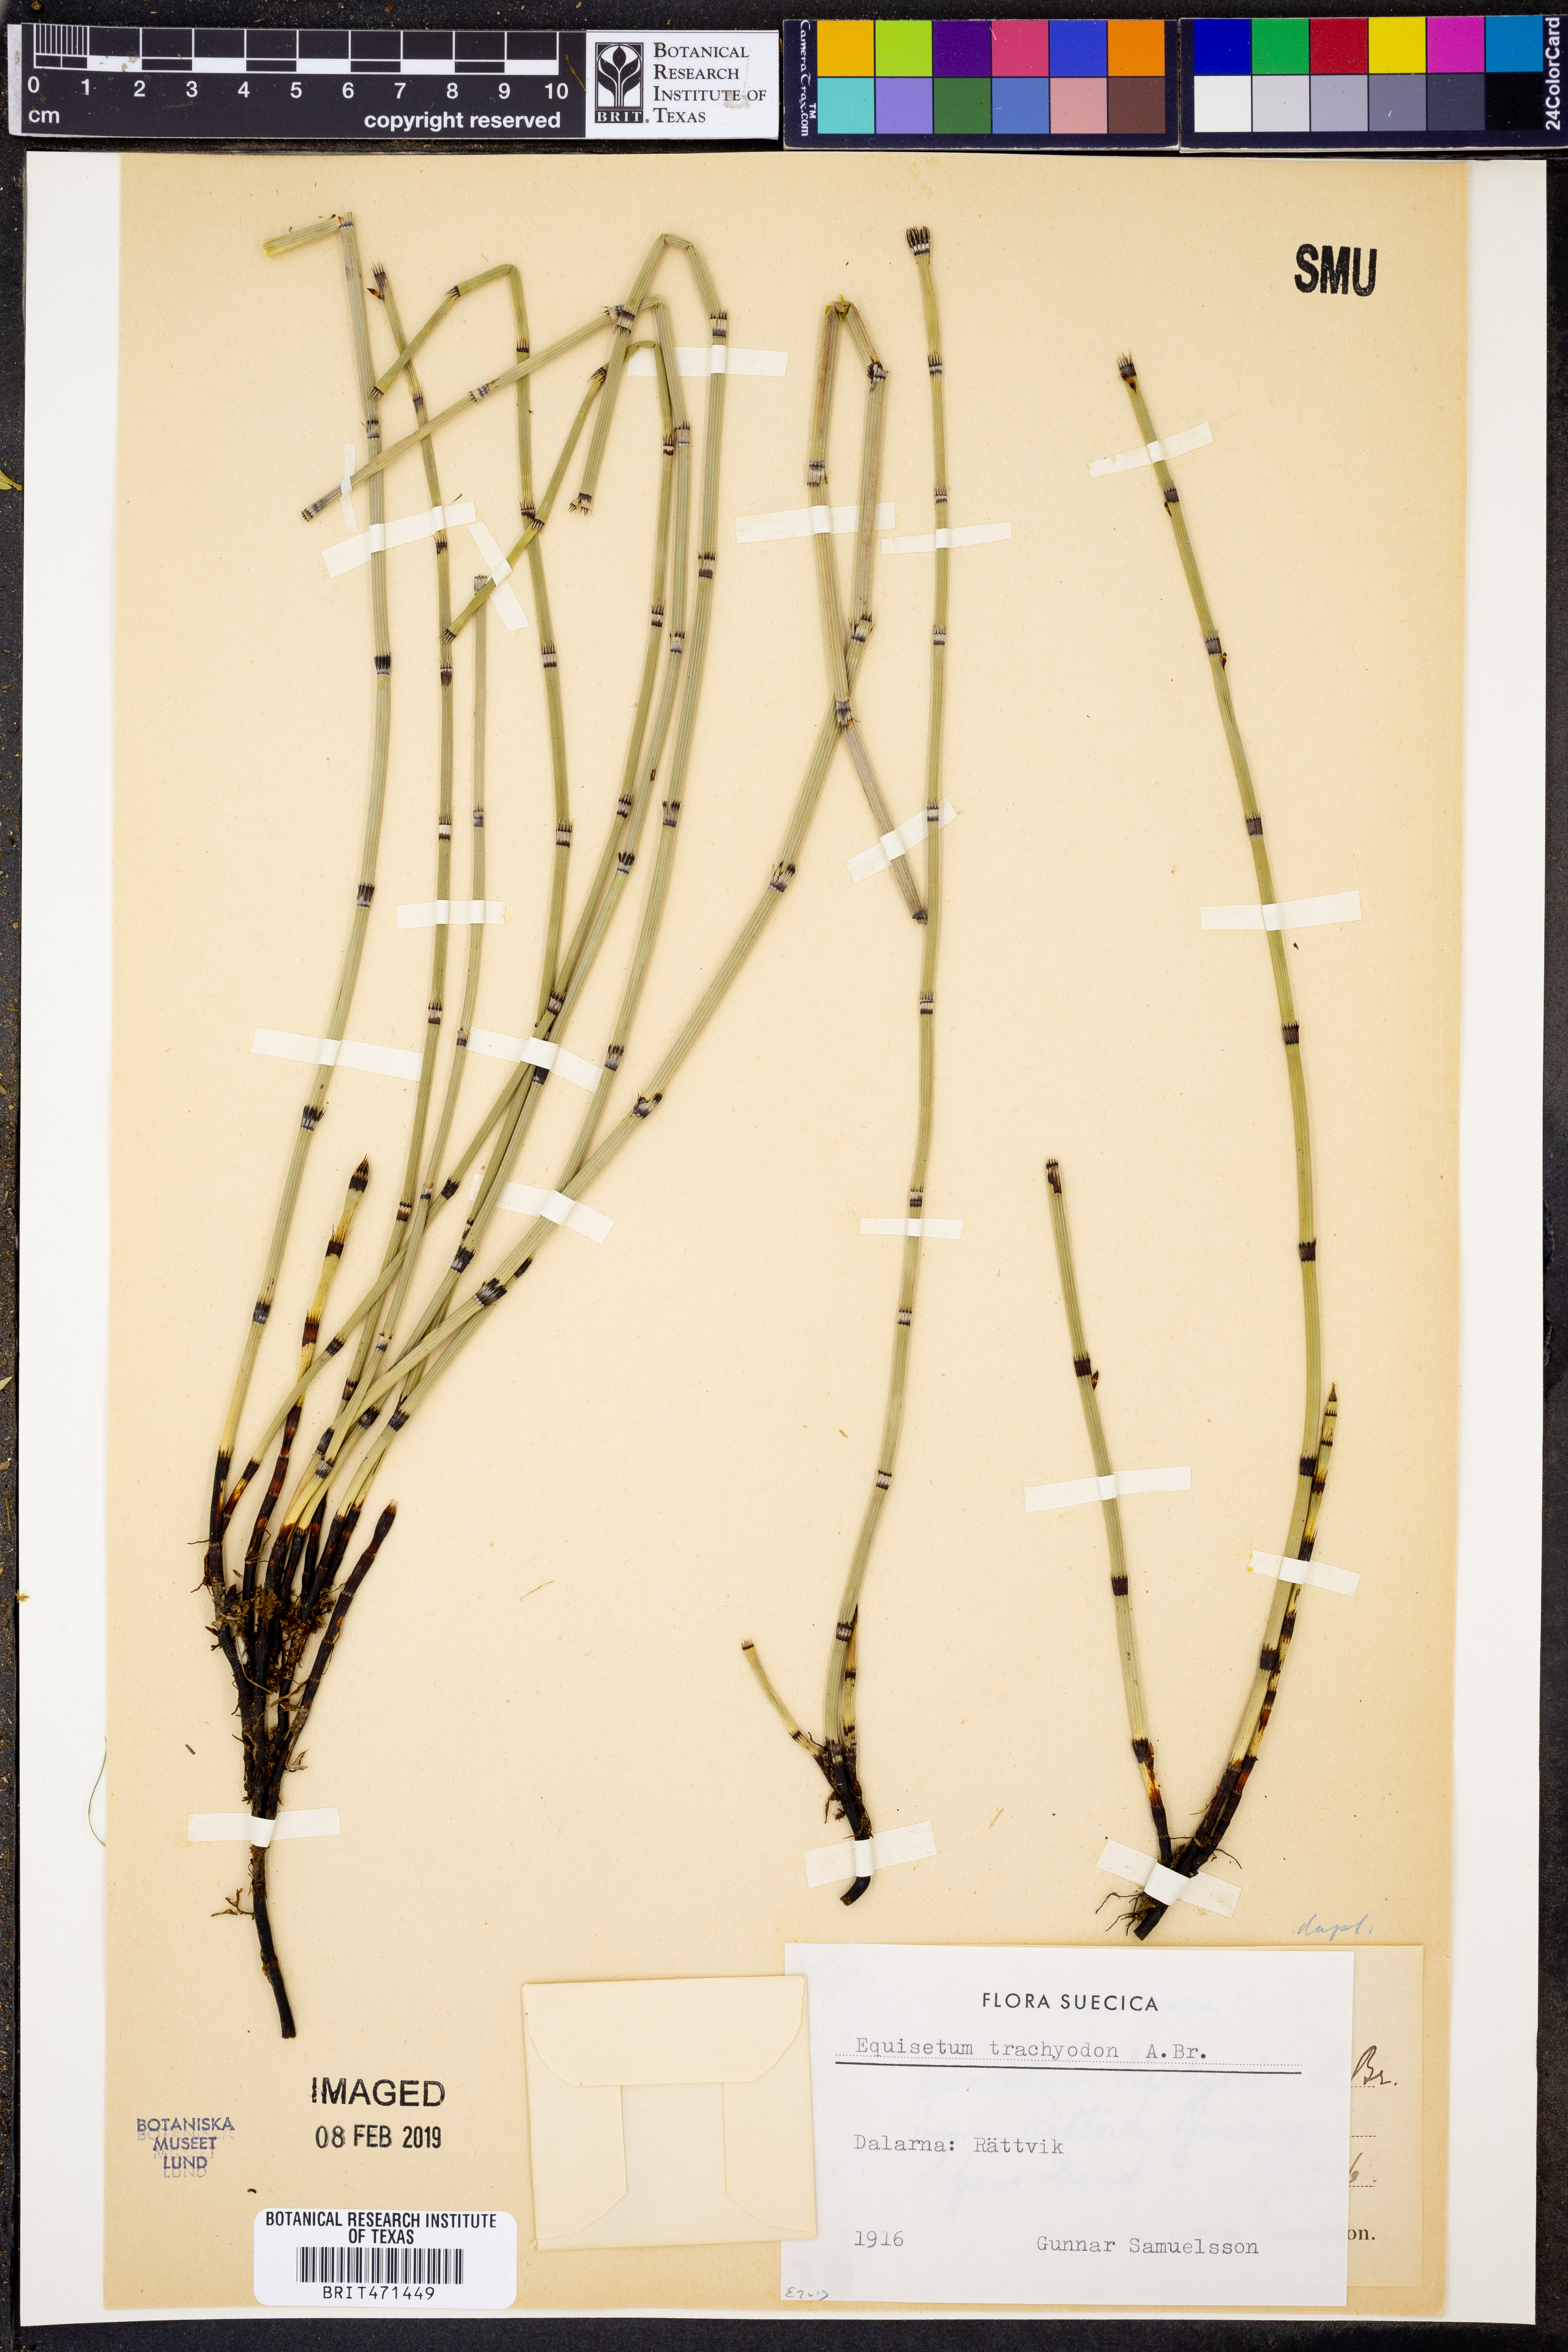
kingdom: Plantae
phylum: Tracheophyta
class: Polypodiopsida
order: Equisetales
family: Equisetaceae
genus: Equisetum
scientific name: Equisetum trachyodon
